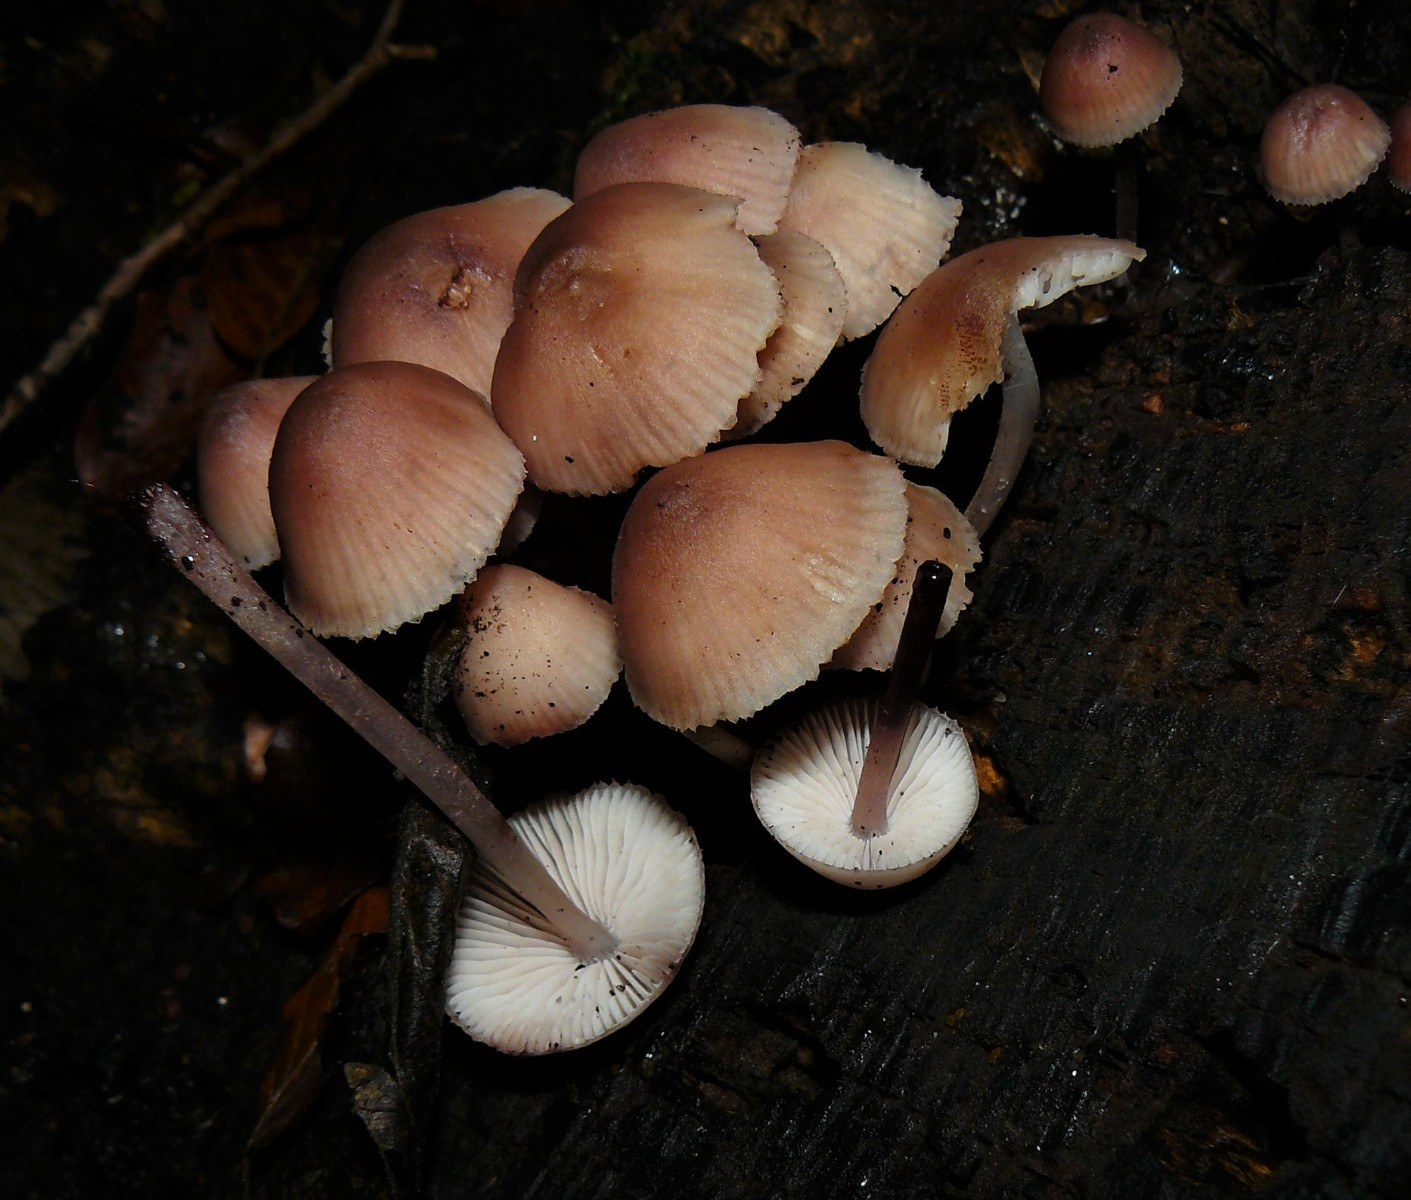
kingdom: Fungi
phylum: Basidiomycota
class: Agaricomycetes
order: Agaricales
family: Mycenaceae
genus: Mycena
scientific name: Mycena haematopus
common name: blødende huesvamp
